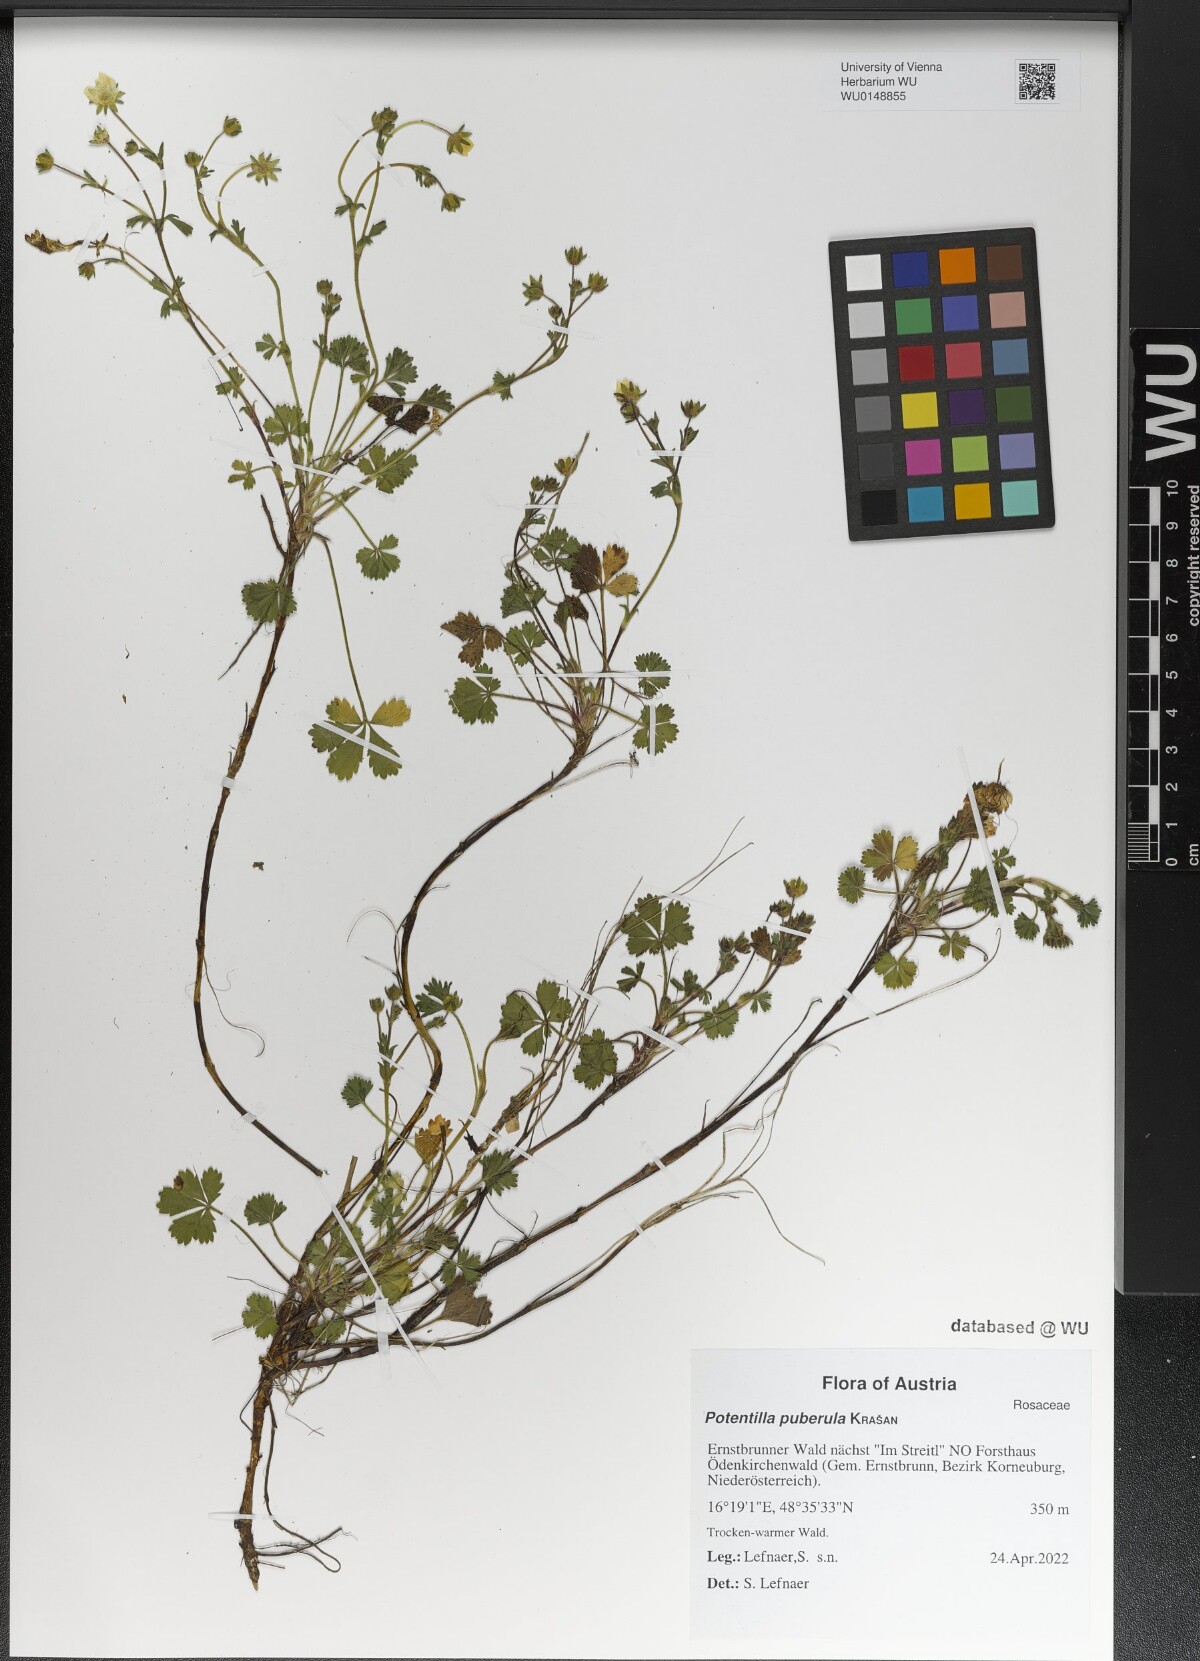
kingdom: Plantae
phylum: Tracheophyta
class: Magnoliopsida
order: Rosales
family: Rosaceae
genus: Potentilla
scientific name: Potentilla pusilla
